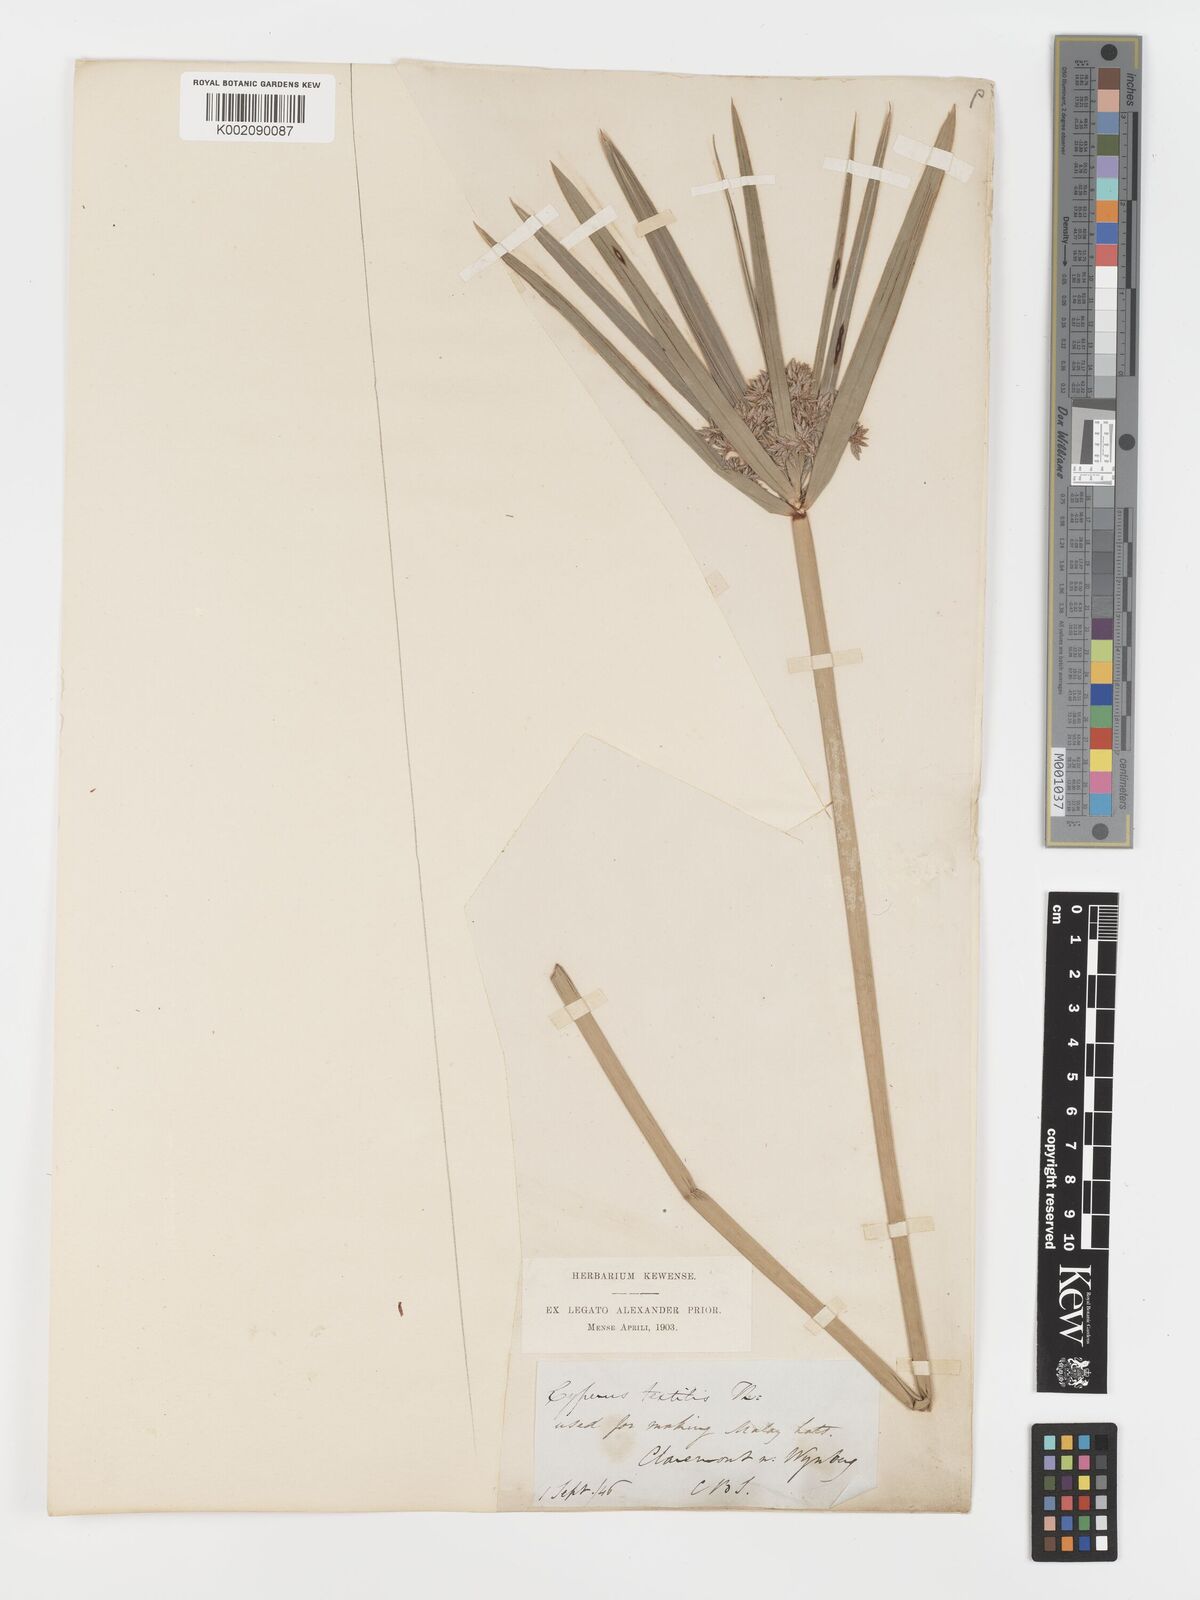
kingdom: Plantae
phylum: Tracheophyta
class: Liliopsida
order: Poales
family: Cyperaceae
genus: Cyperus
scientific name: Cyperus alternifolius
